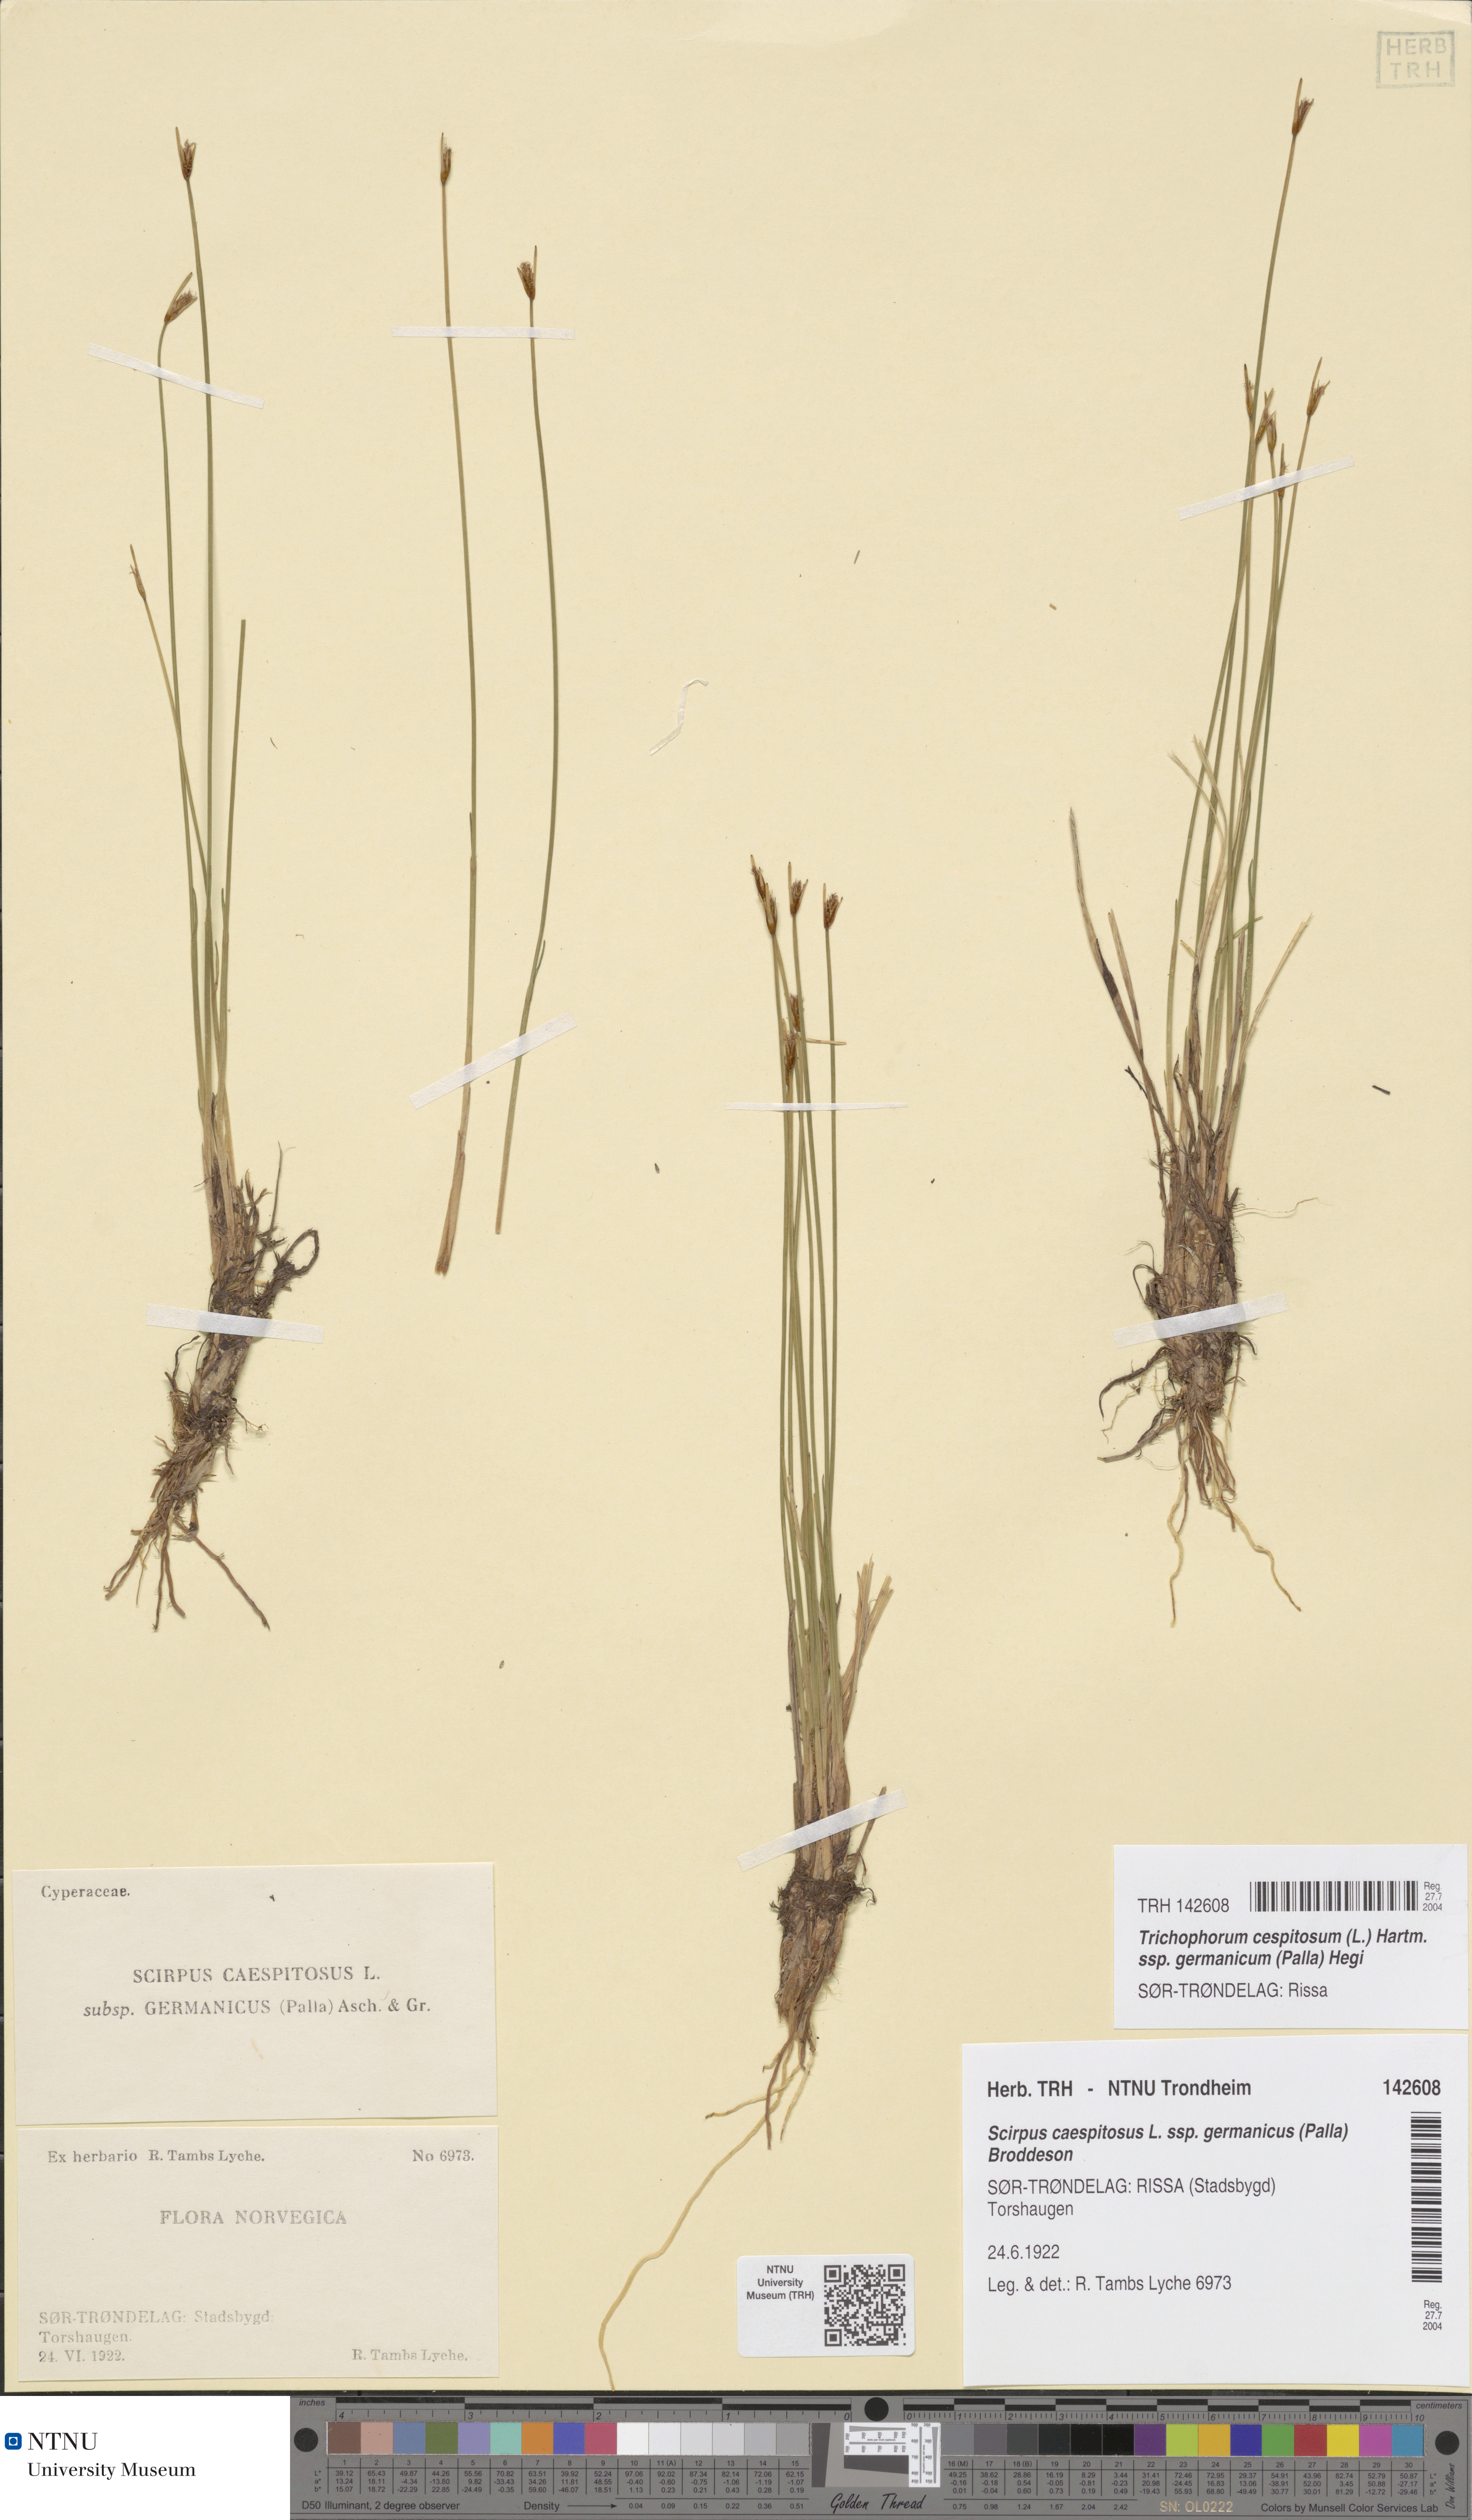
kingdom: Plantae
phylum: Tracheophyta
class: Liliopsida
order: Poales
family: Cyperaceae
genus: Trichophorum
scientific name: Trichophorum cespitosum
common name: Cespitose bulrush
